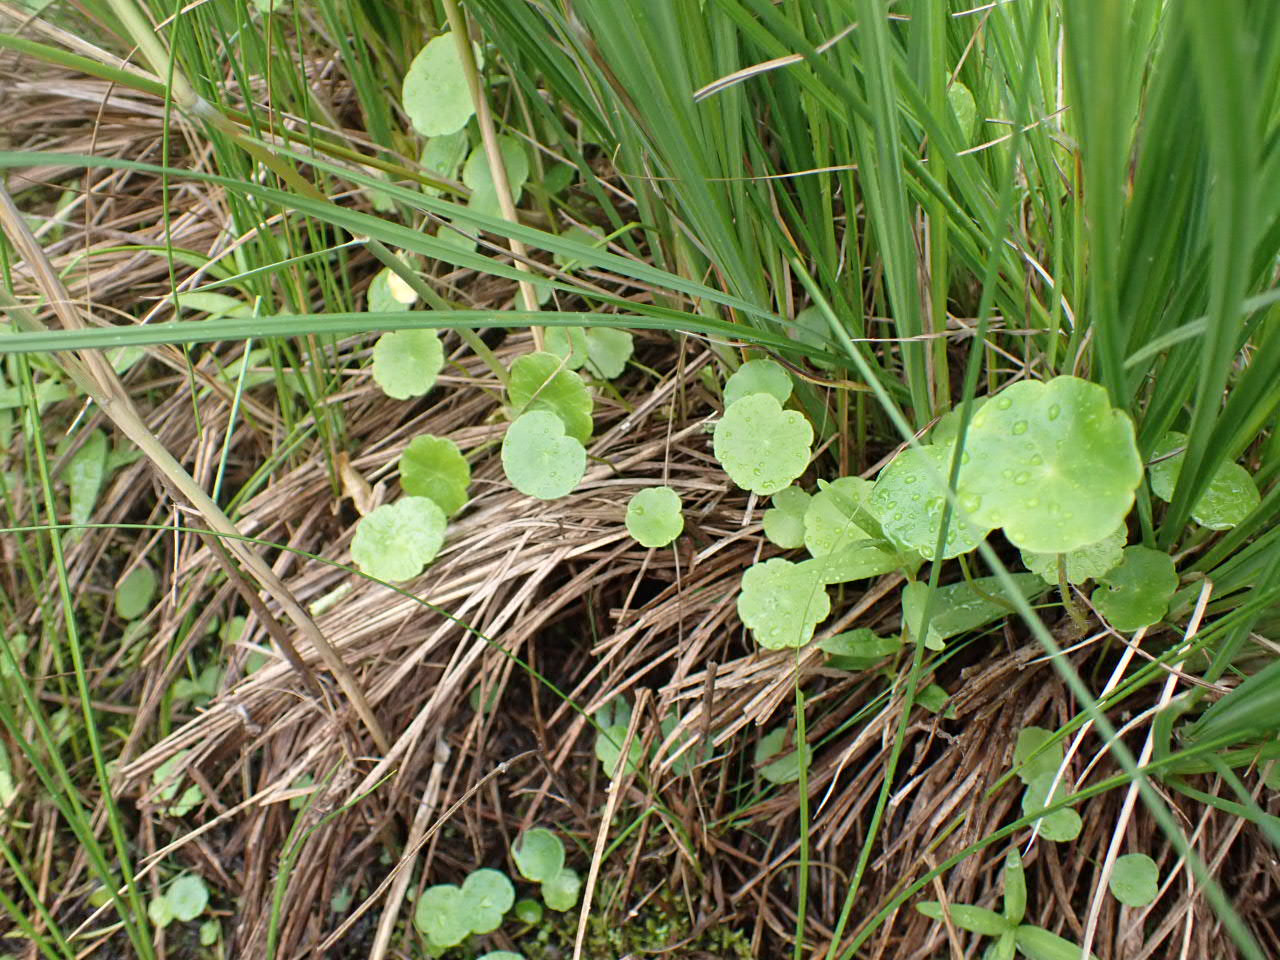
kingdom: Plantae
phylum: Tracheophyta
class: Magnoliopsida
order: Apiales
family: Araliaceae
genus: Hydrocotyle
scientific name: Hydrocotyle vulgaris
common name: Vandnavle
